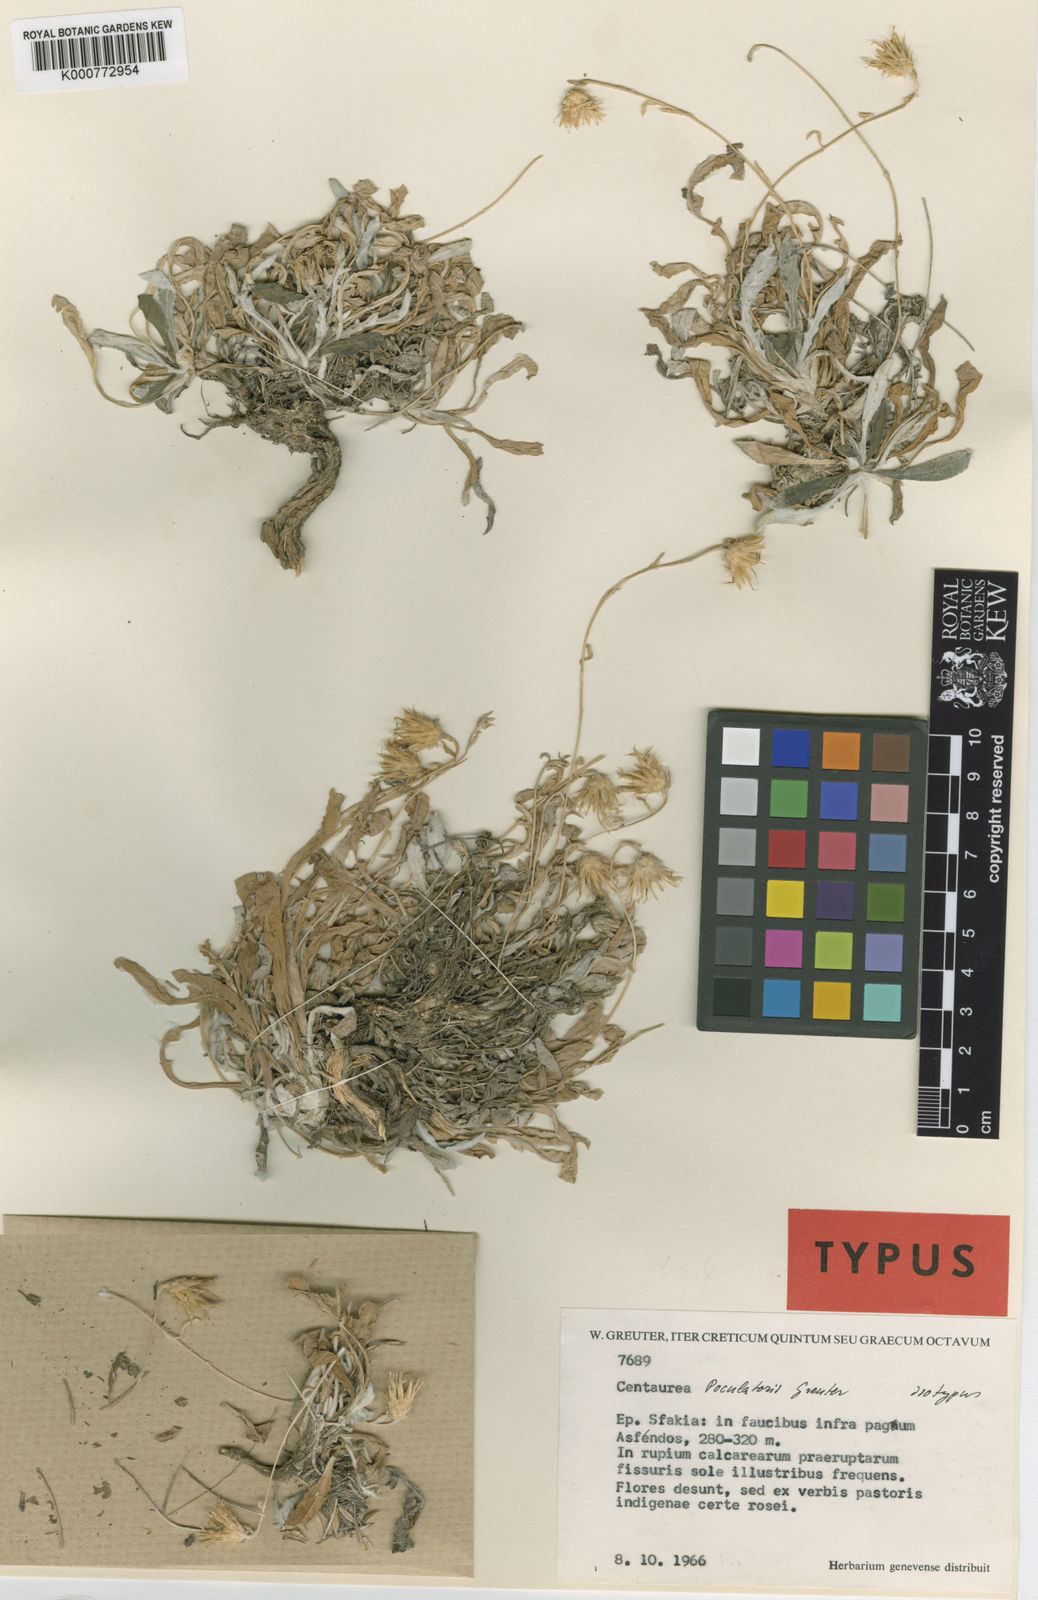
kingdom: Plantae
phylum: Tracheophyta
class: Magnoliopsida
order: Asterales
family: Asteraceae
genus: Centaurea
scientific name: Centaurea poculatoris
